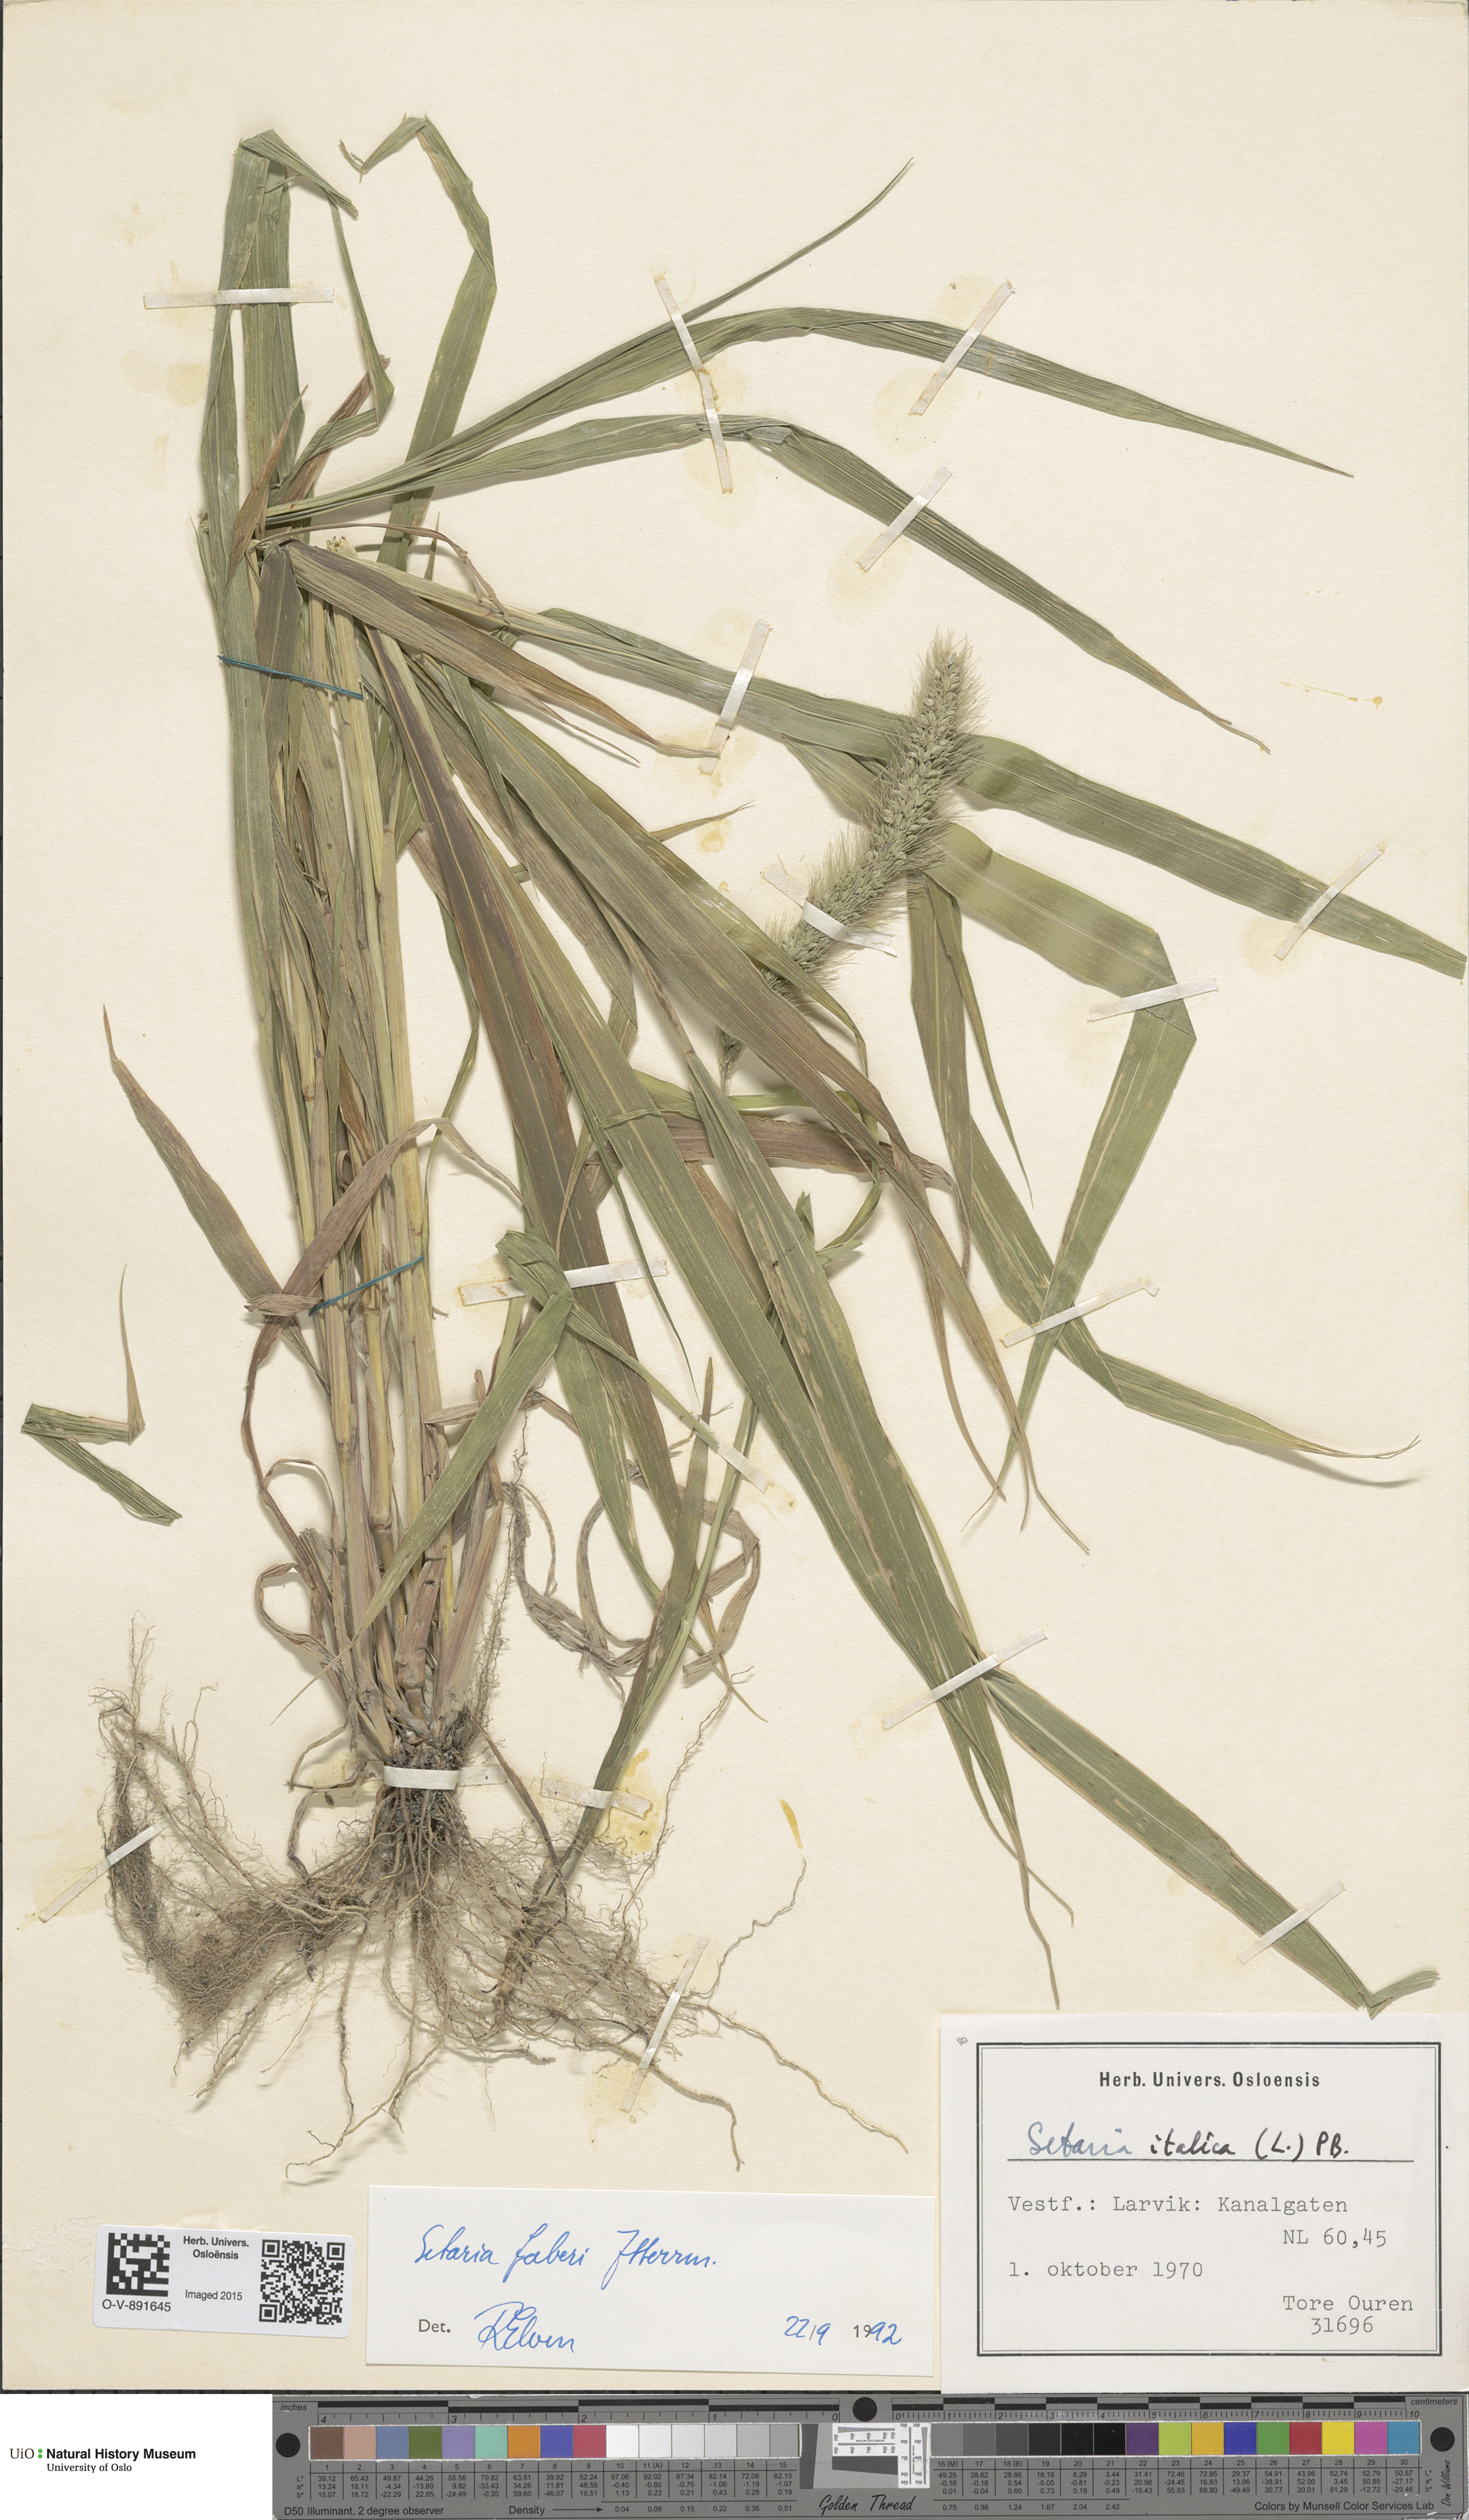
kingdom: Plantae
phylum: Tracheophyta
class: Liliopsida
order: Poales
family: Poaceae
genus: Setaria
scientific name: Setaria faberi
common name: Nodding bristle-grass
